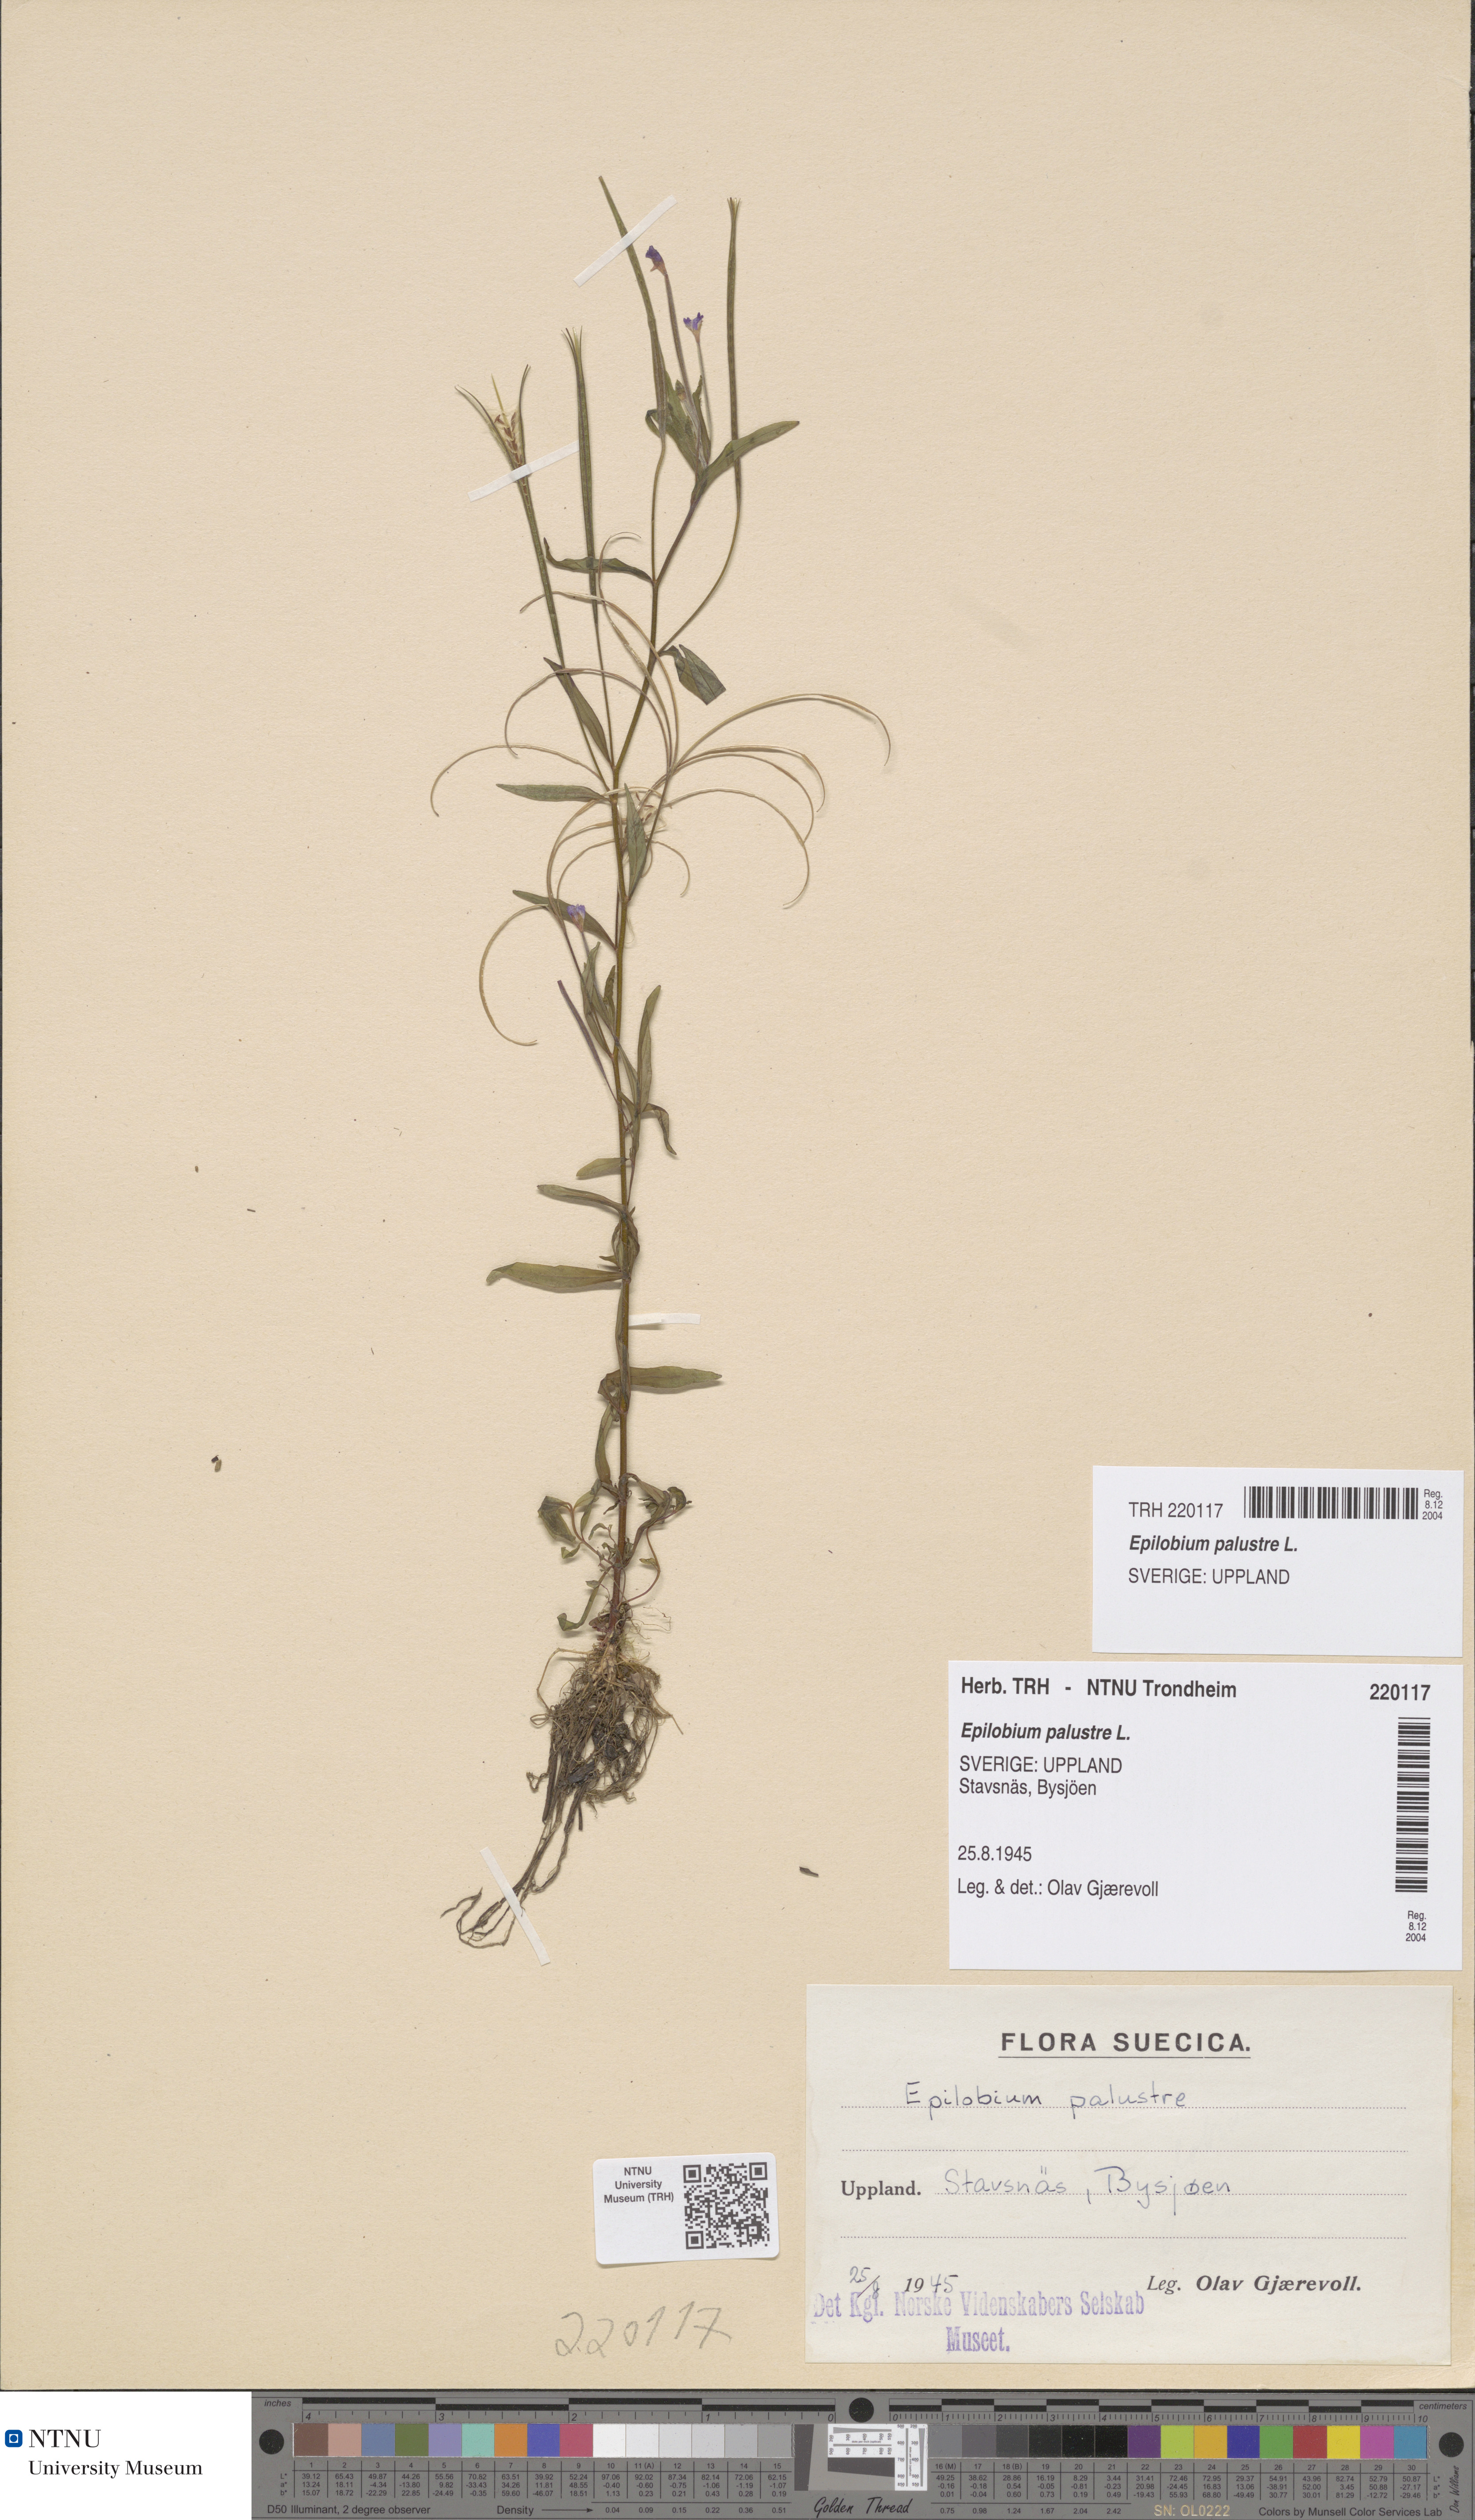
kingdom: Plantae
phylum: Tracheophyta
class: Magnoliopsida
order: Myrtales
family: Onagraceae
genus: Epilobium
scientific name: Epilobium palustre
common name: Marsh willowherb
